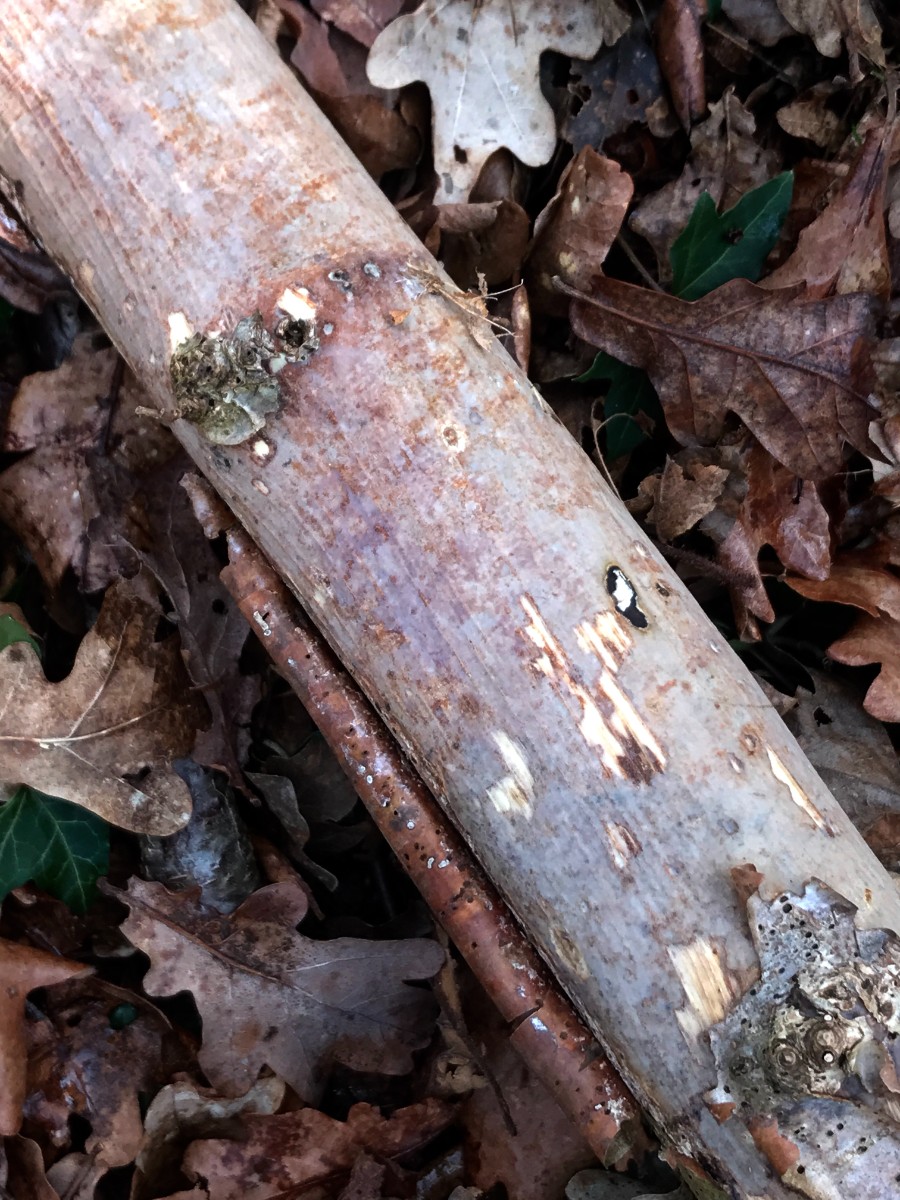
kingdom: Fungi
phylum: Basidiomycota
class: Agaricomycetes
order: Corticiales
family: Vuilleminiaceae
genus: Vuilleminia
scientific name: Vuilleminia coryli
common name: hassel-barksprænger
